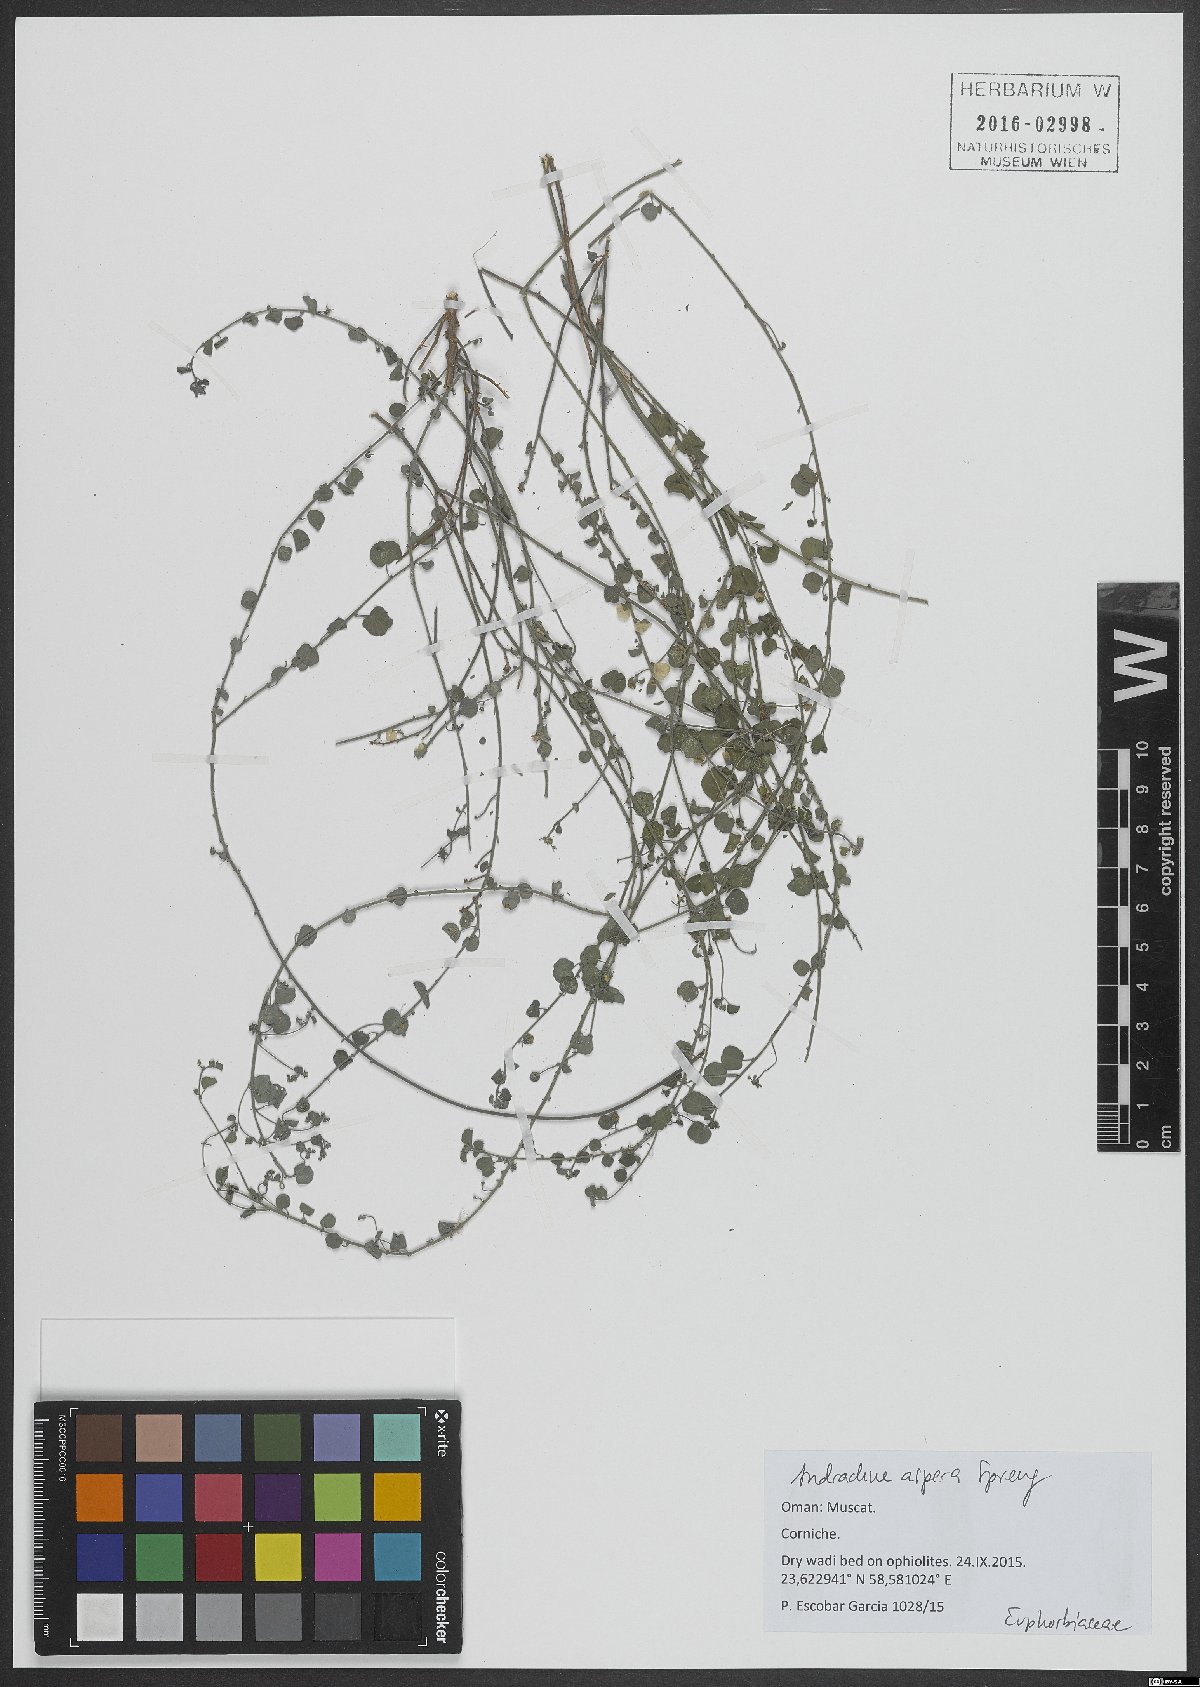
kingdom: Plantae
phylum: Tracheophyta
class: Magnoliopsida
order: Malpighiales
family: Phyllanthaceae
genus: Andrachne
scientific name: Andrachne aspera
